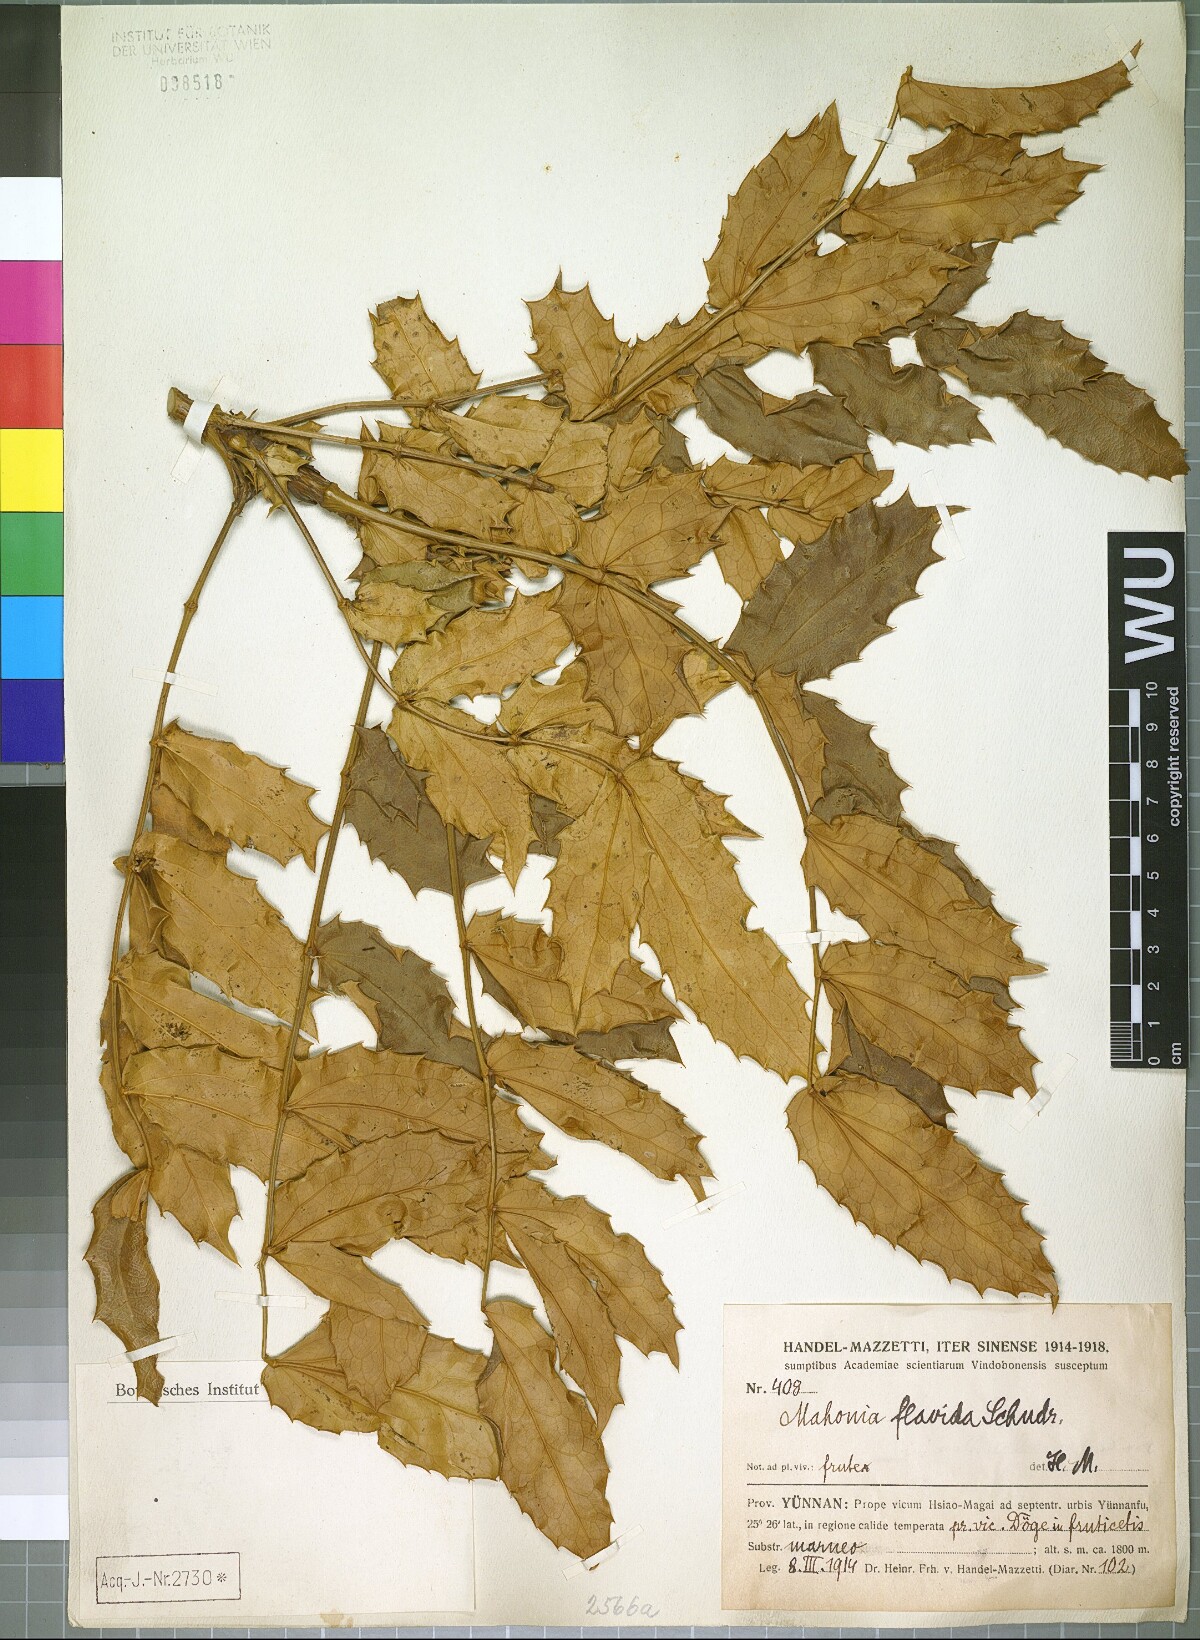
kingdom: Plantae
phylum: Tracheophyta
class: Magnoliopsida
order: Ranunculales
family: Berberidaceae
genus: Mahonia
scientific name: Mahonia napaulensis
